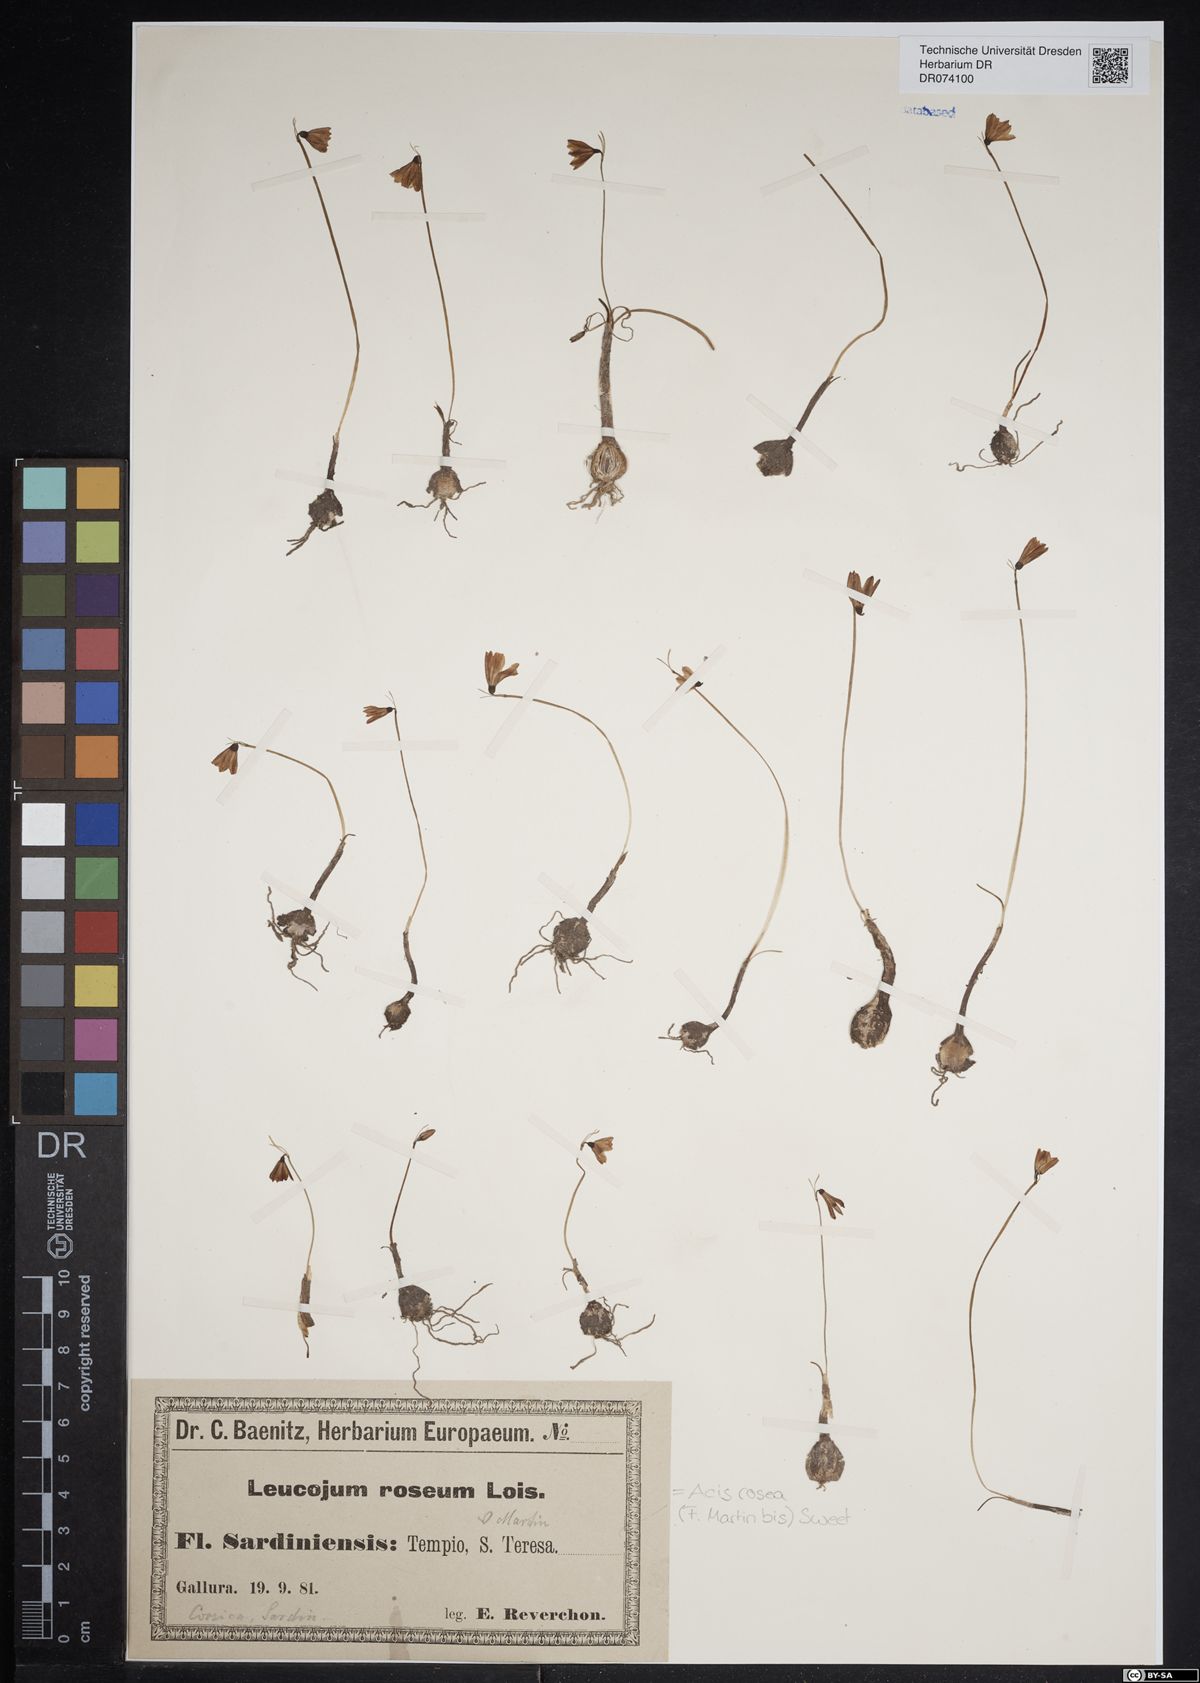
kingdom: Plantae
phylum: Tracheophyta
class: Liliopsida
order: Asparagales
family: Amaryllidaceae
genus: Acis
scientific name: Acis rosea
